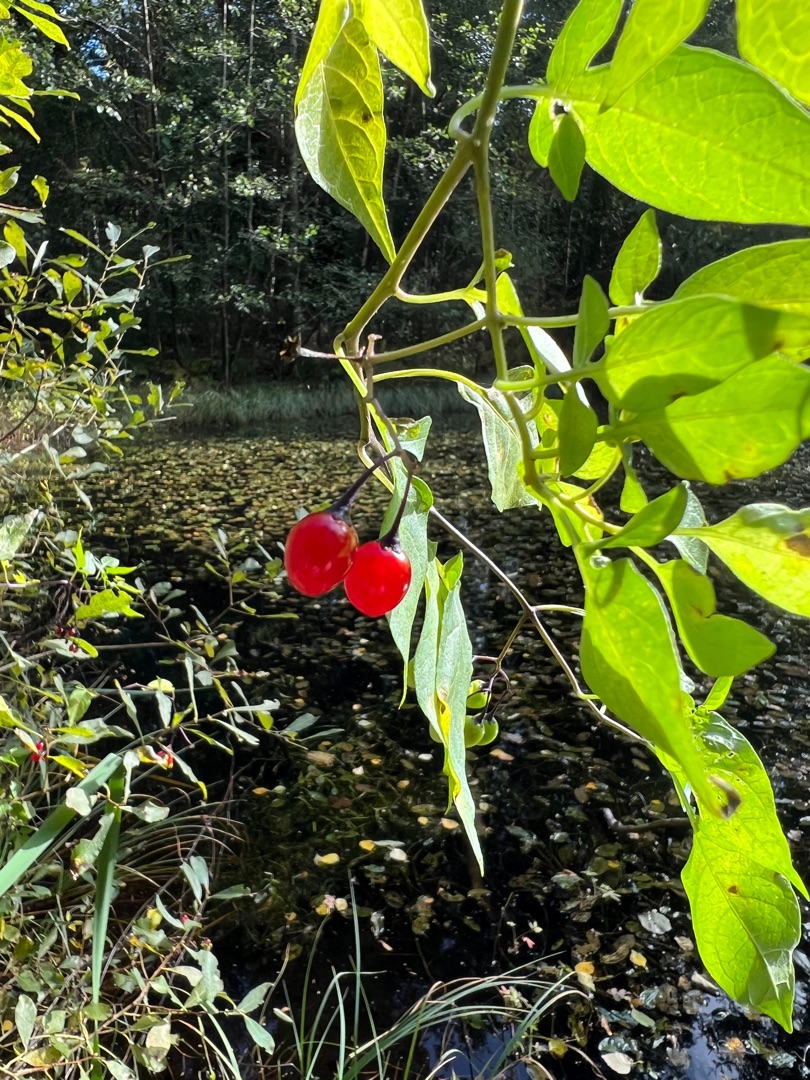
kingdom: Plantae
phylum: Tracheophyta
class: Magnoliopsida
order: Solanales
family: Solanaceae
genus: Solanum
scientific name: Solanum dulcamara
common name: Bittersød natskygge
